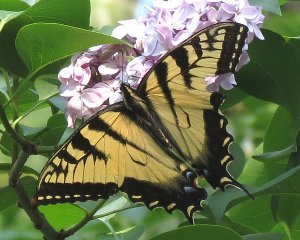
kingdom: Animalia
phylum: Arthropoda
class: Insecta
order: Lepidoptera
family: Papilionidae
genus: Pterourus
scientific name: Pterourus glaucus
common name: Eastern Tiger Swallowtail
